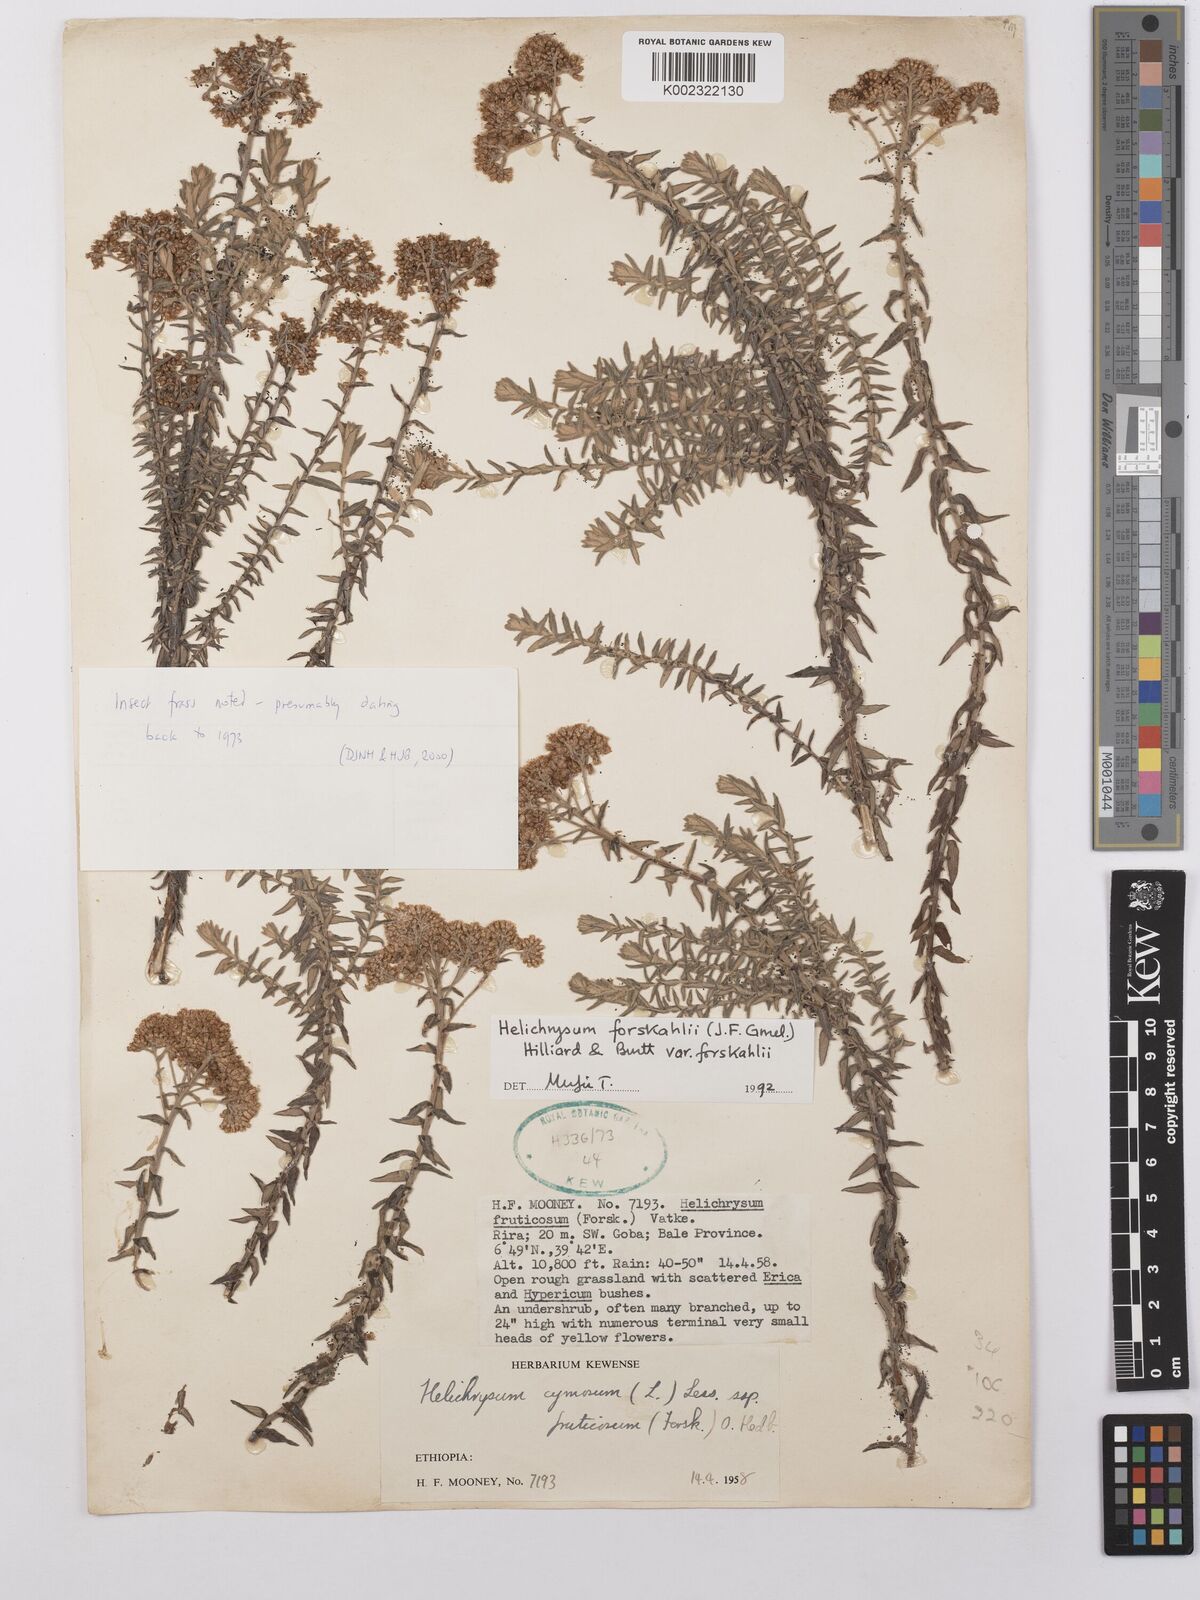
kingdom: Plantae
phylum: Tracheophyta
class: Magnoliopsida
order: Asterales
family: Asteraceae
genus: Helichrysum
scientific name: Helichrysum forskahlii
